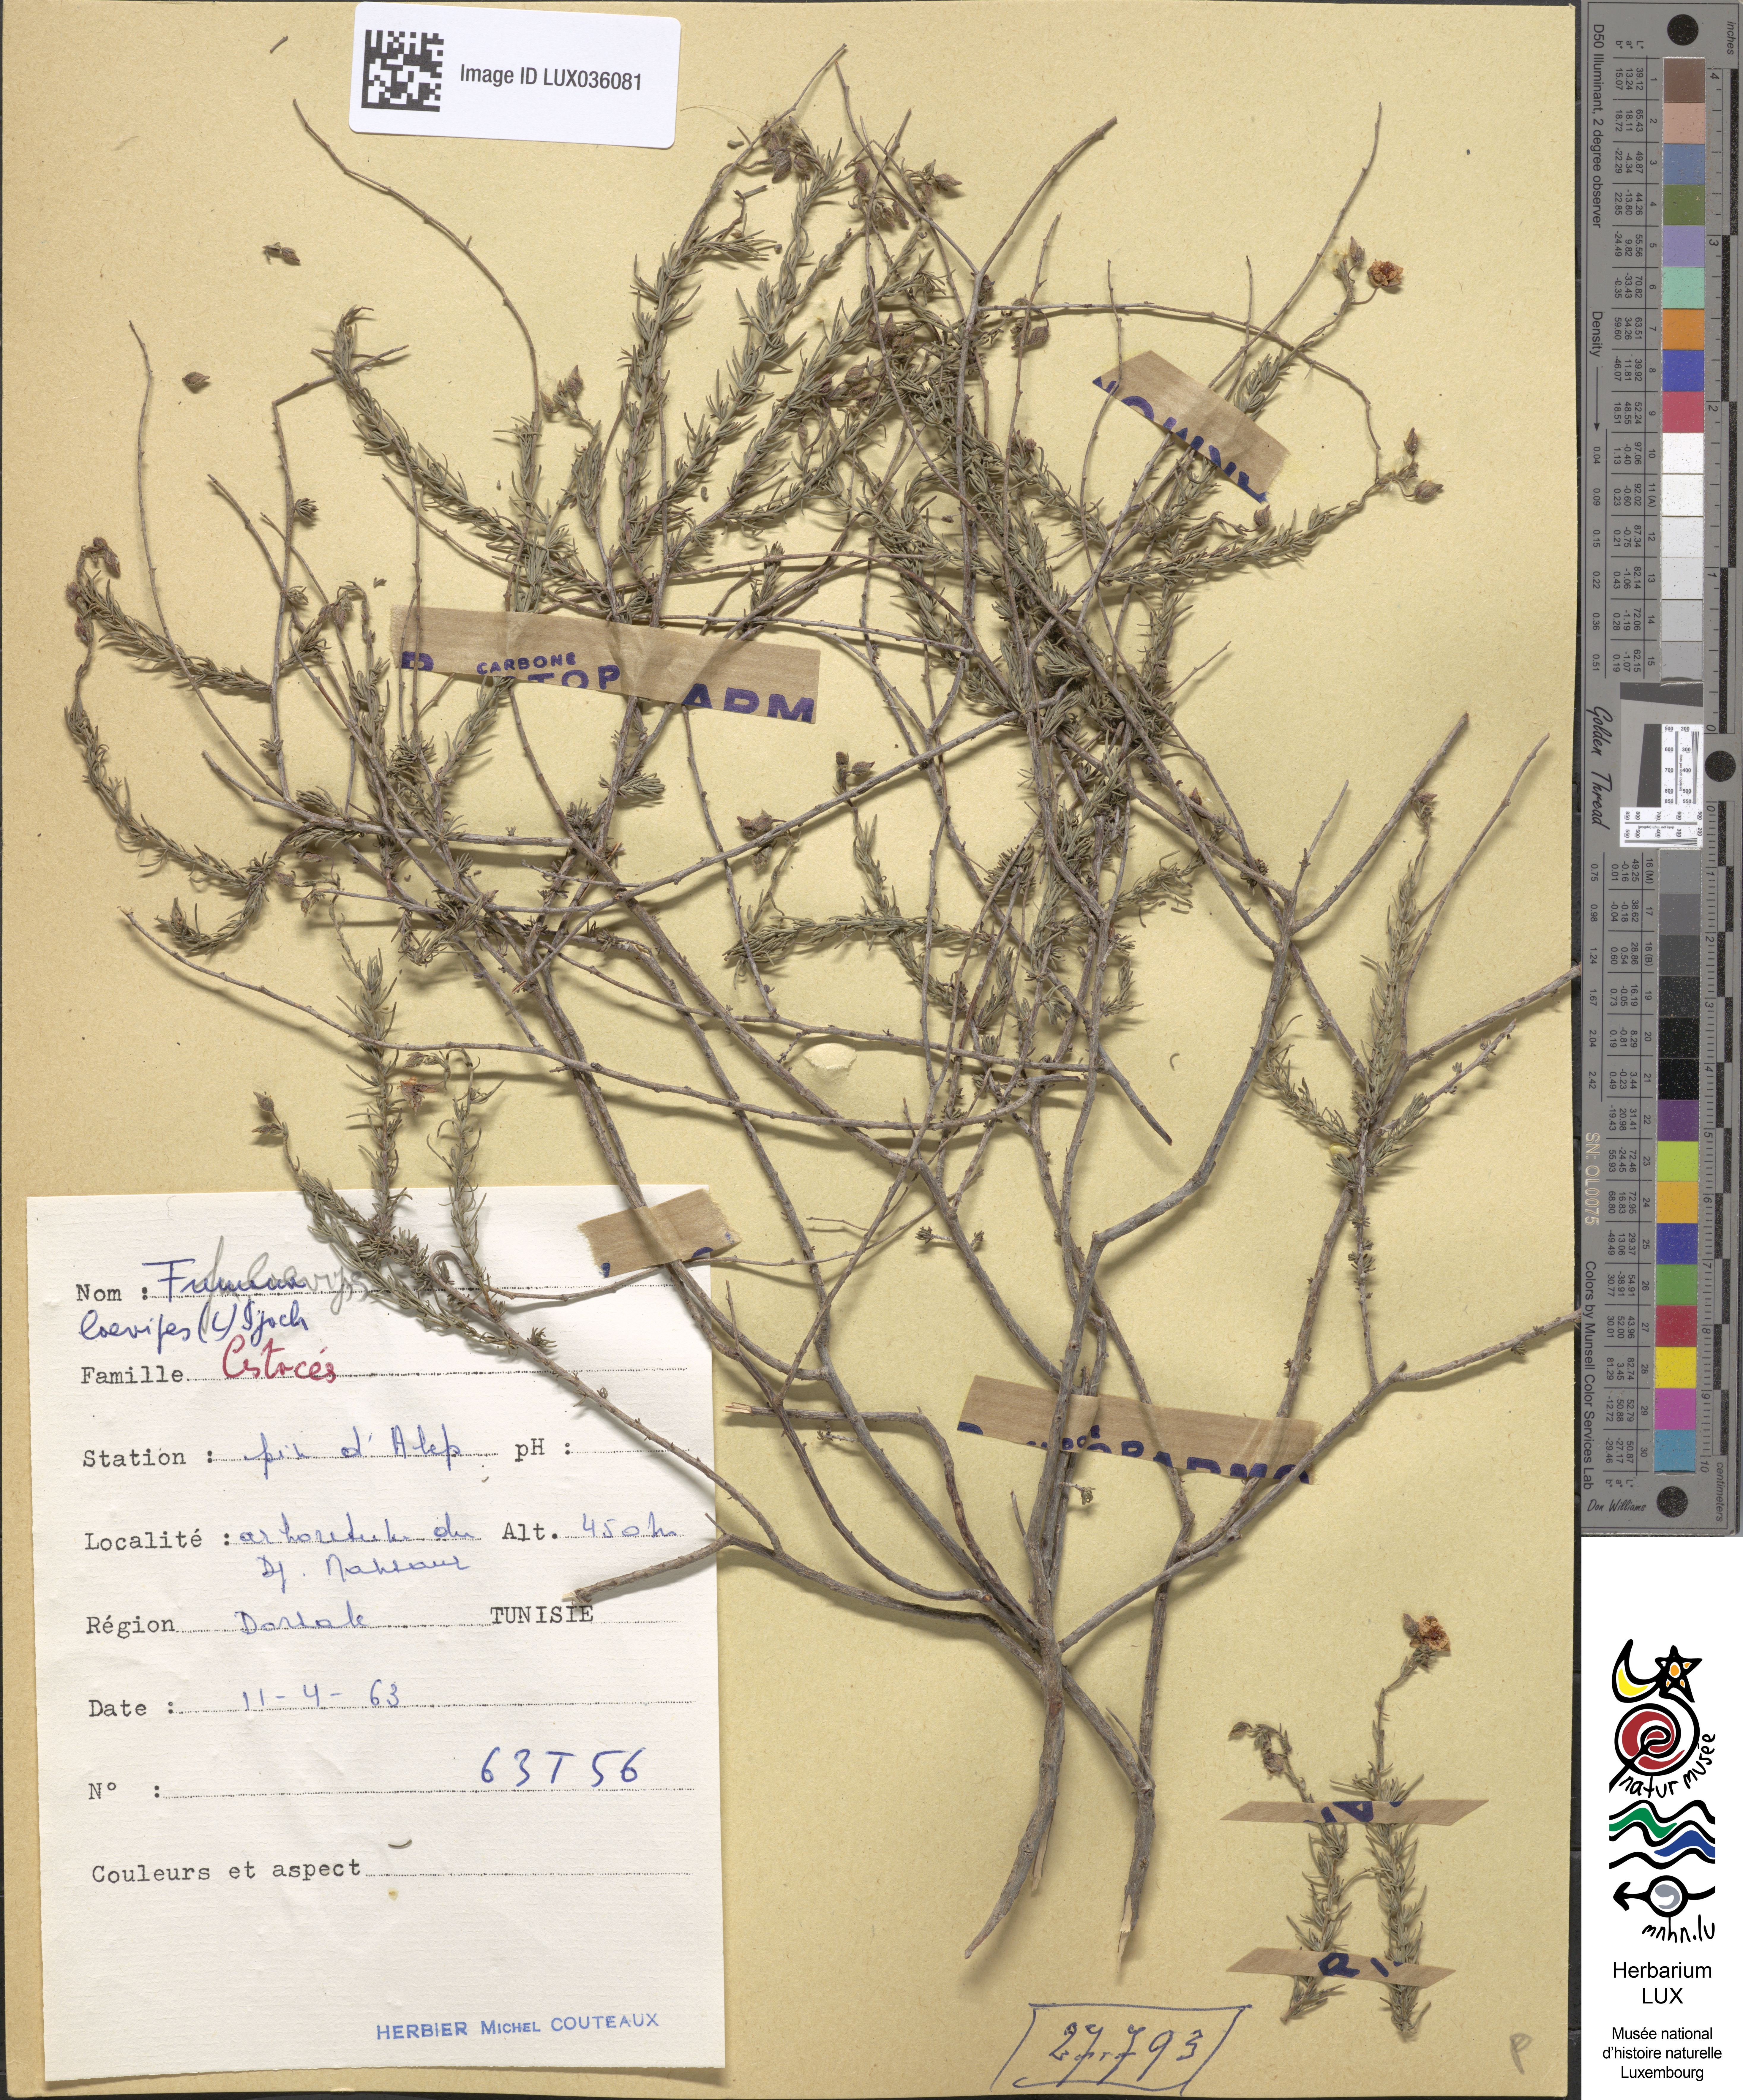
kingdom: Plantae
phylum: Tracheophyta
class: Magnoliopsida
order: Malvales
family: Cistaceae
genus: Fumana
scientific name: Fumana laevipes
